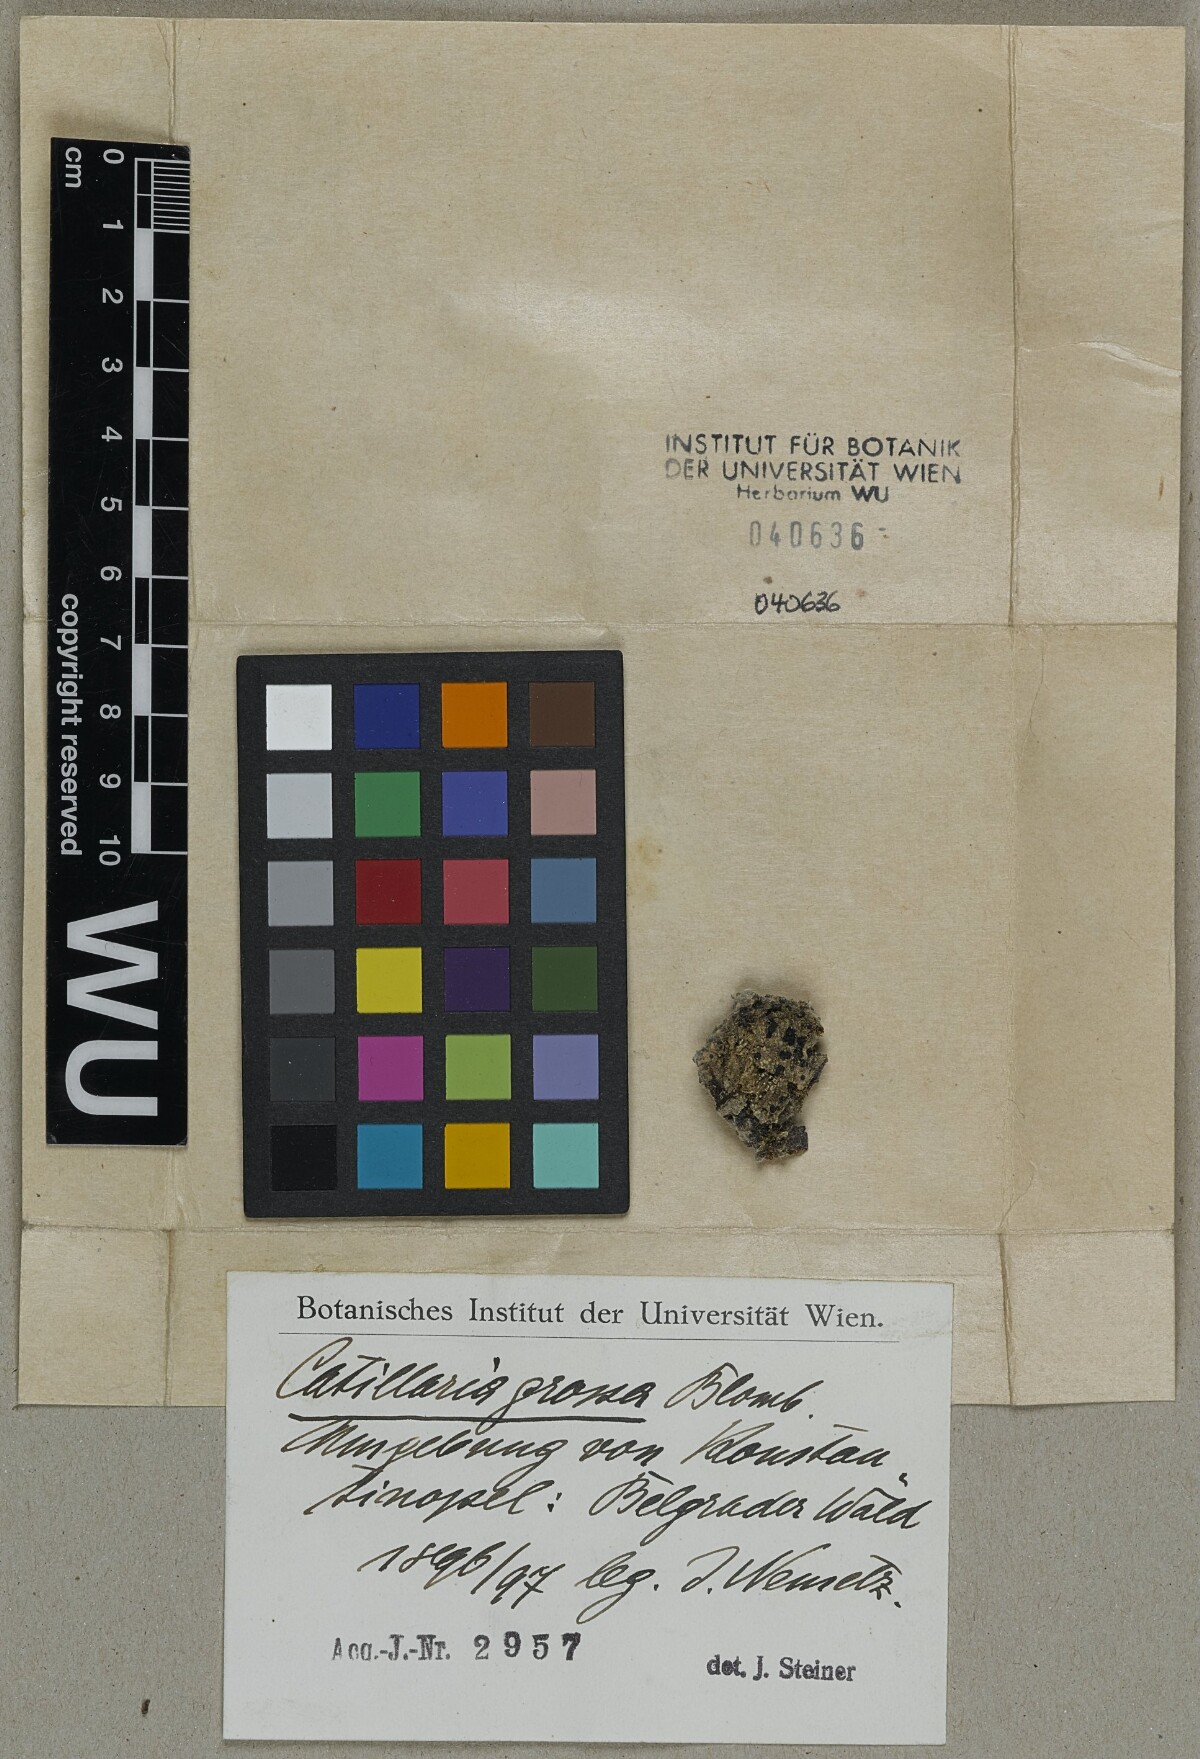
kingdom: Fungi
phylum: Ascomycota
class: Lecanoromycetes
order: Lecanorales
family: Ramalinaceae
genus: Megalaria
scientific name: Megalaria grossa
